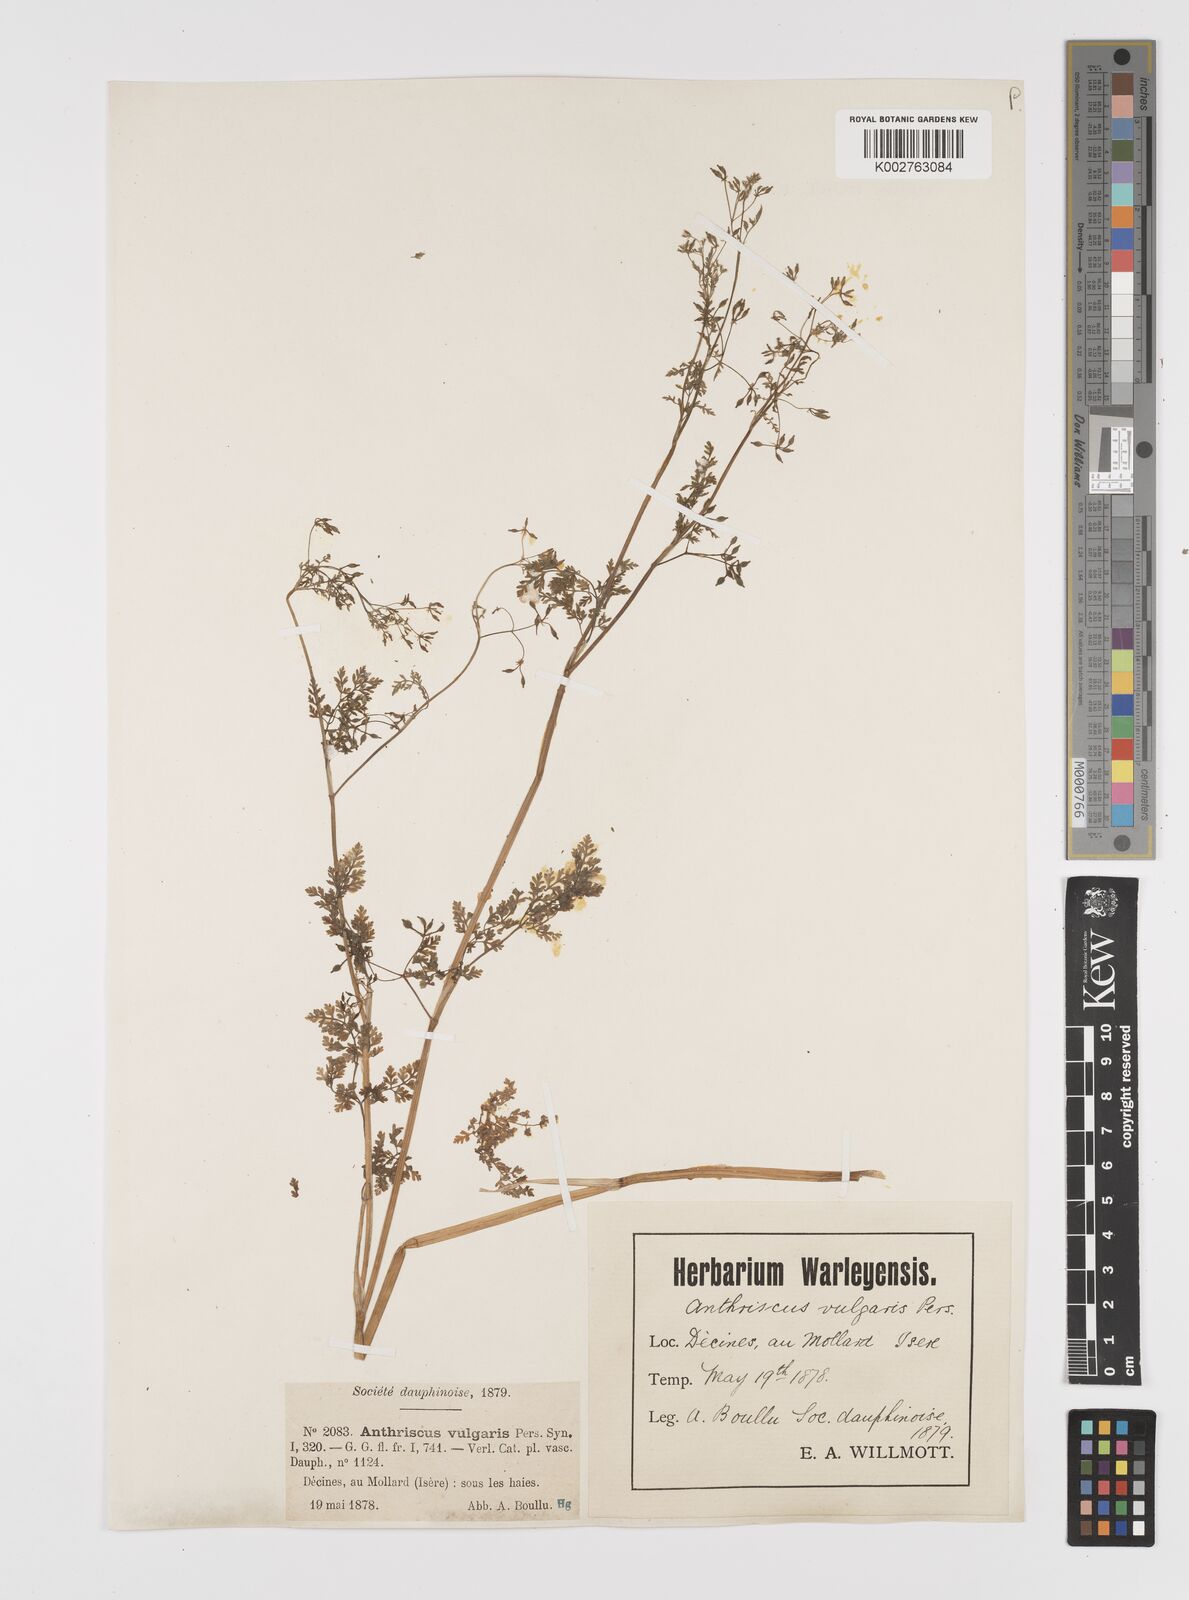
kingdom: Plantae
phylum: Tracheophyta
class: Magnoliopsida
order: Apiales
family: Apiaceae
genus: Anthriscus
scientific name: Anthriscus caucalis
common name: Bur chervil
